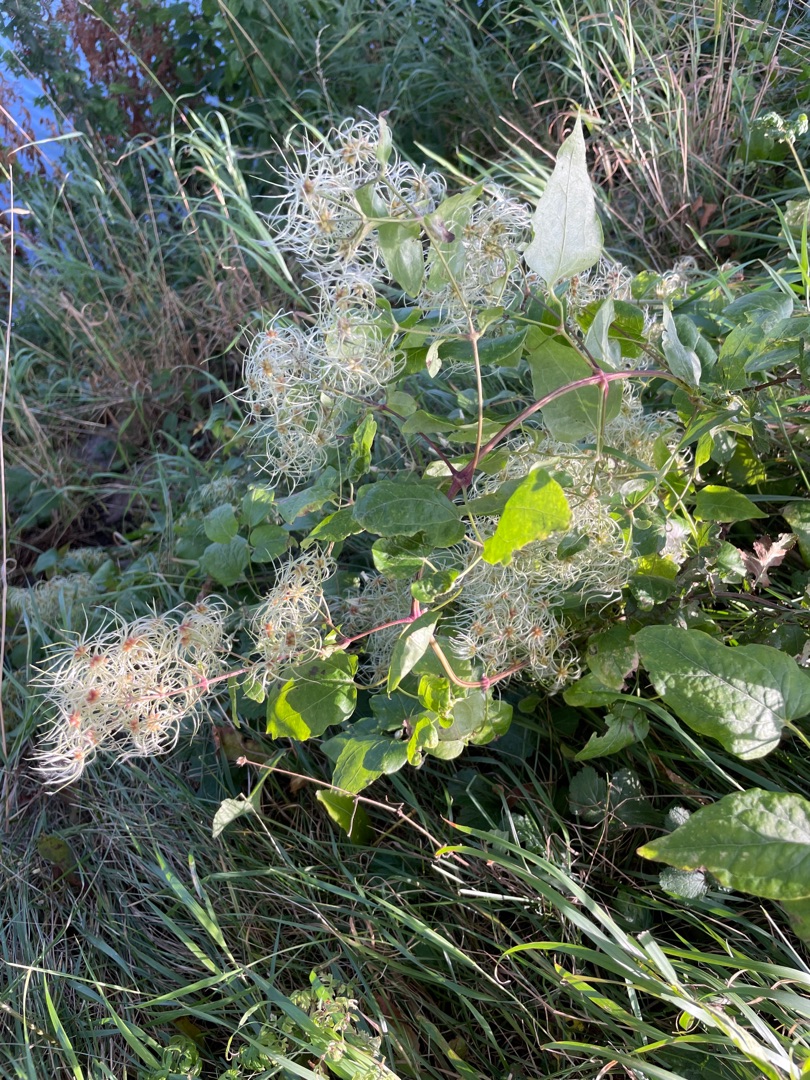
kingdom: Plantae
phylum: Tracheophyta
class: Magnoliopsida
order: Ranunculales
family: Ranunculaceae
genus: Clematis
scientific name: Clematis vitalba
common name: Skovranke
